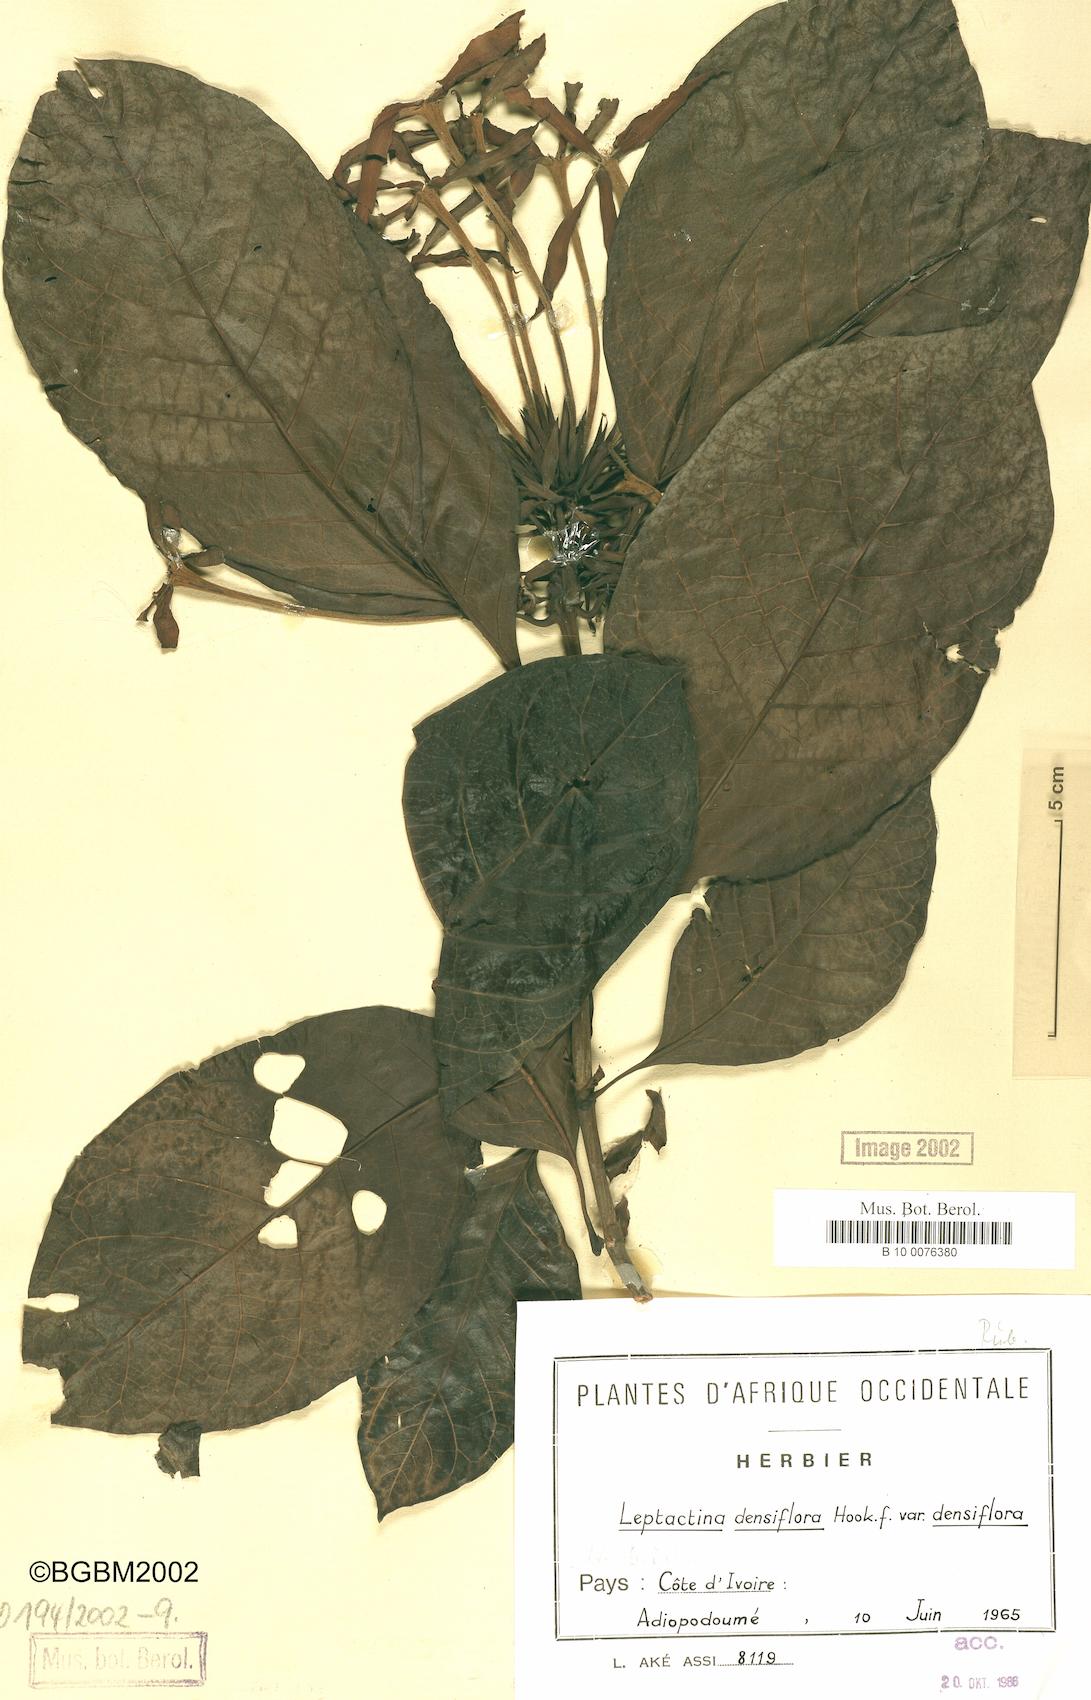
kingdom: Plantae
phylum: Tracheophyta
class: Magnoliopsida
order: Gentianales
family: Rubiaceae
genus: Leptactina
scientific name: Leptactina densiflora
